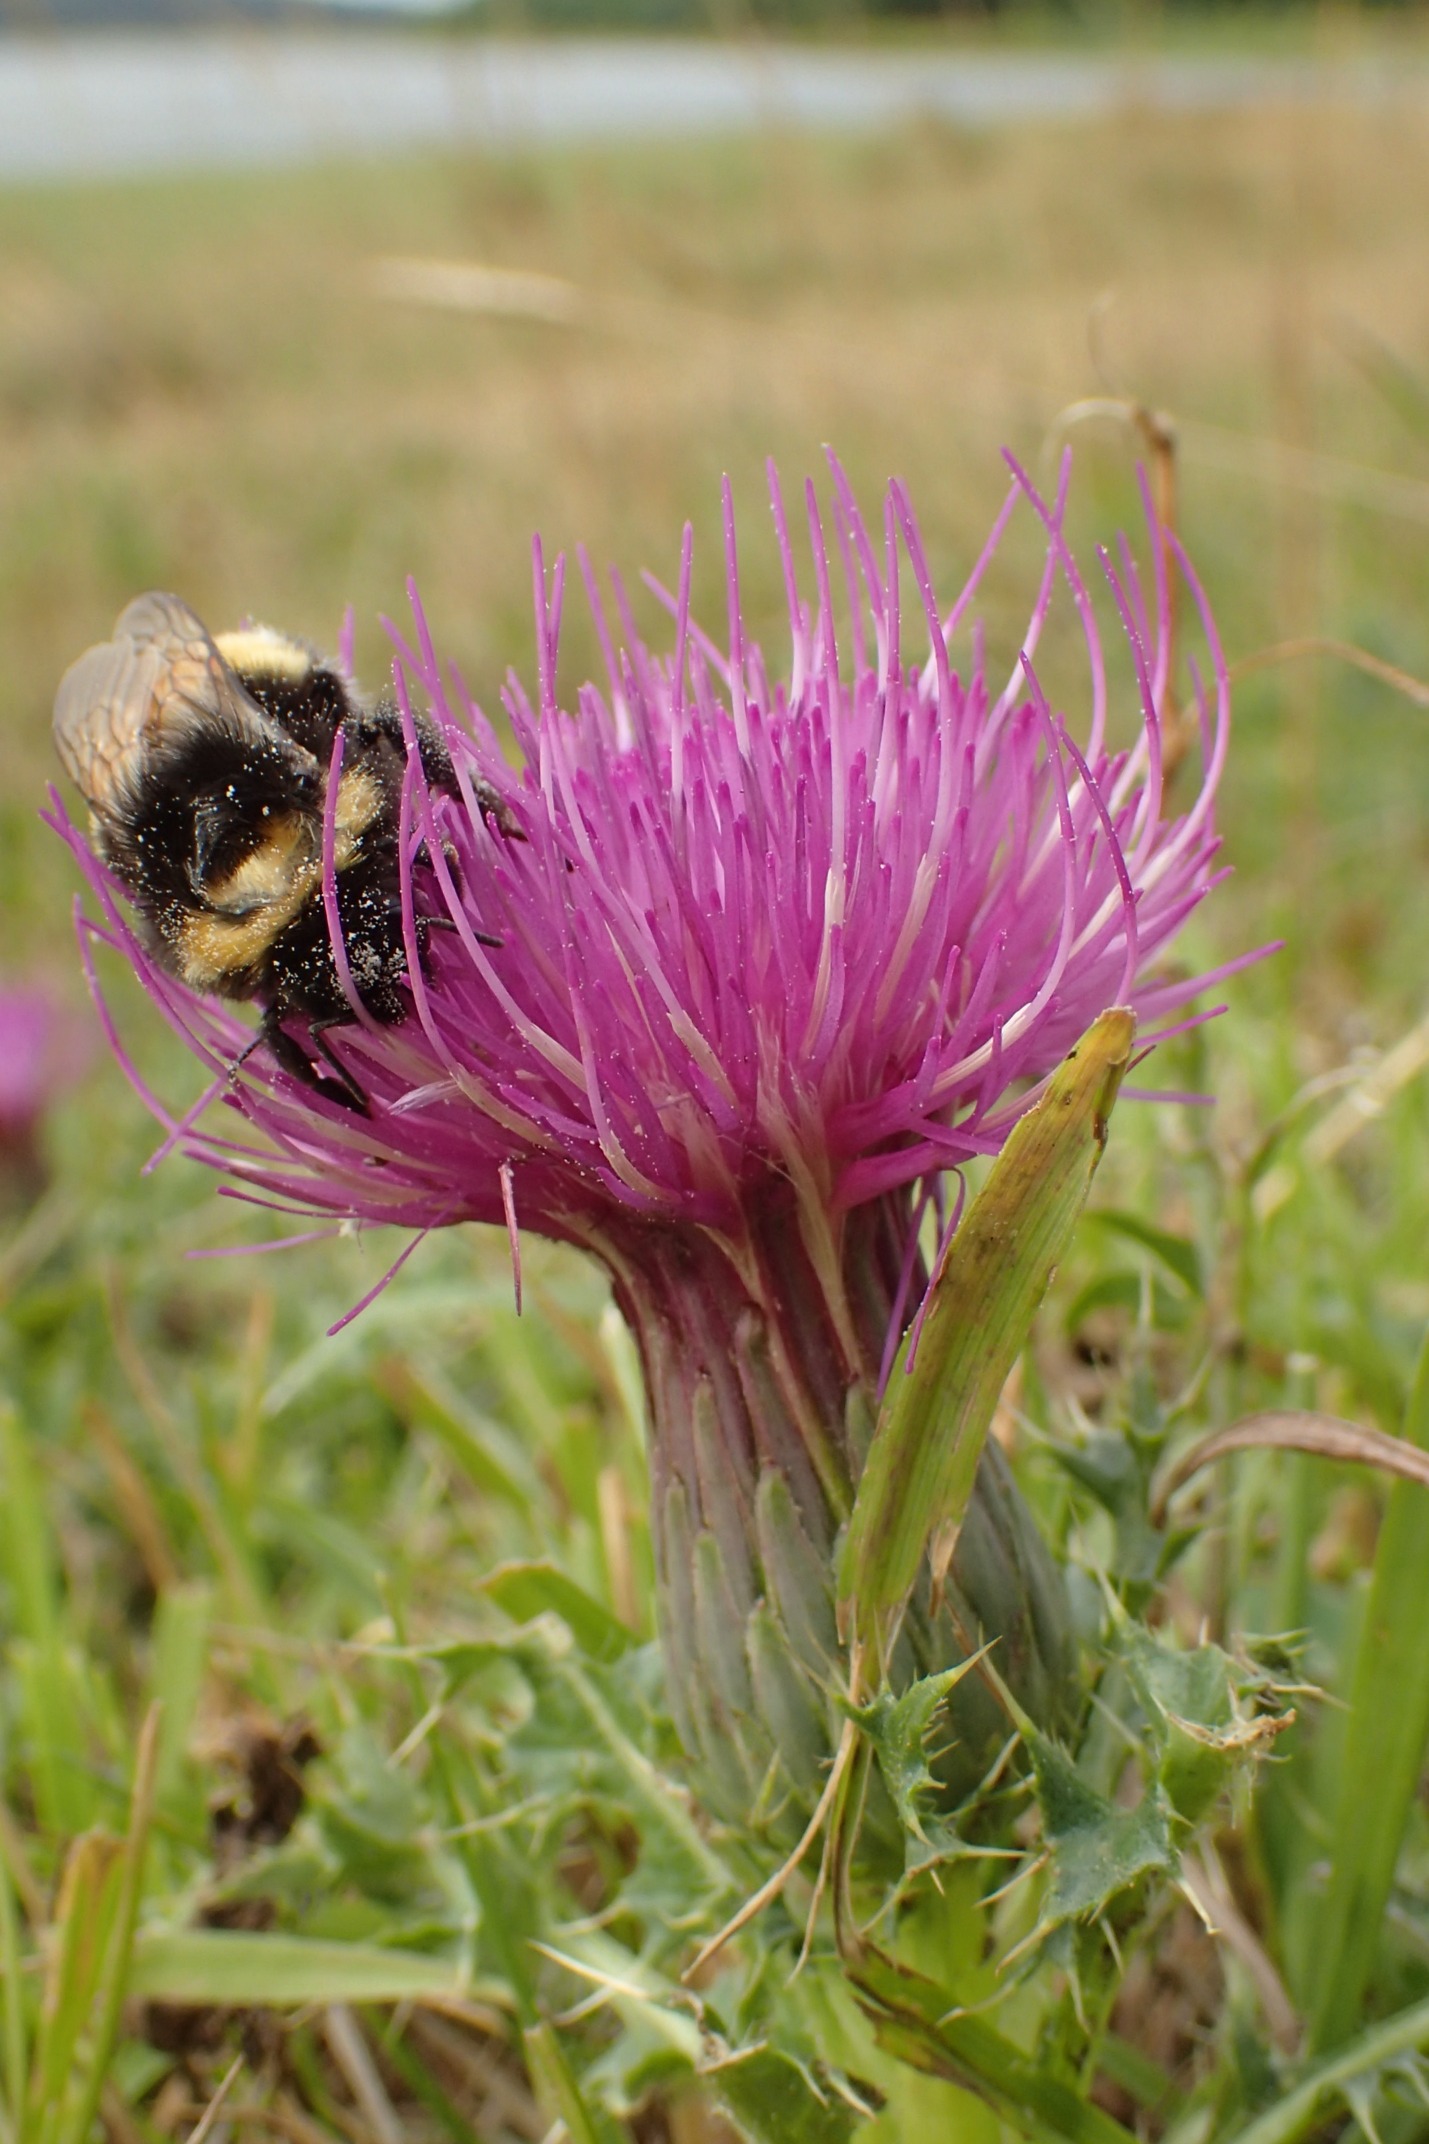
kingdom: Plantae
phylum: Tracheophyta
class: Magnoliopsida
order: Asterales
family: Asteraceae
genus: Cirsium
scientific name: Cirsium acaule
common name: Lav tidsel
